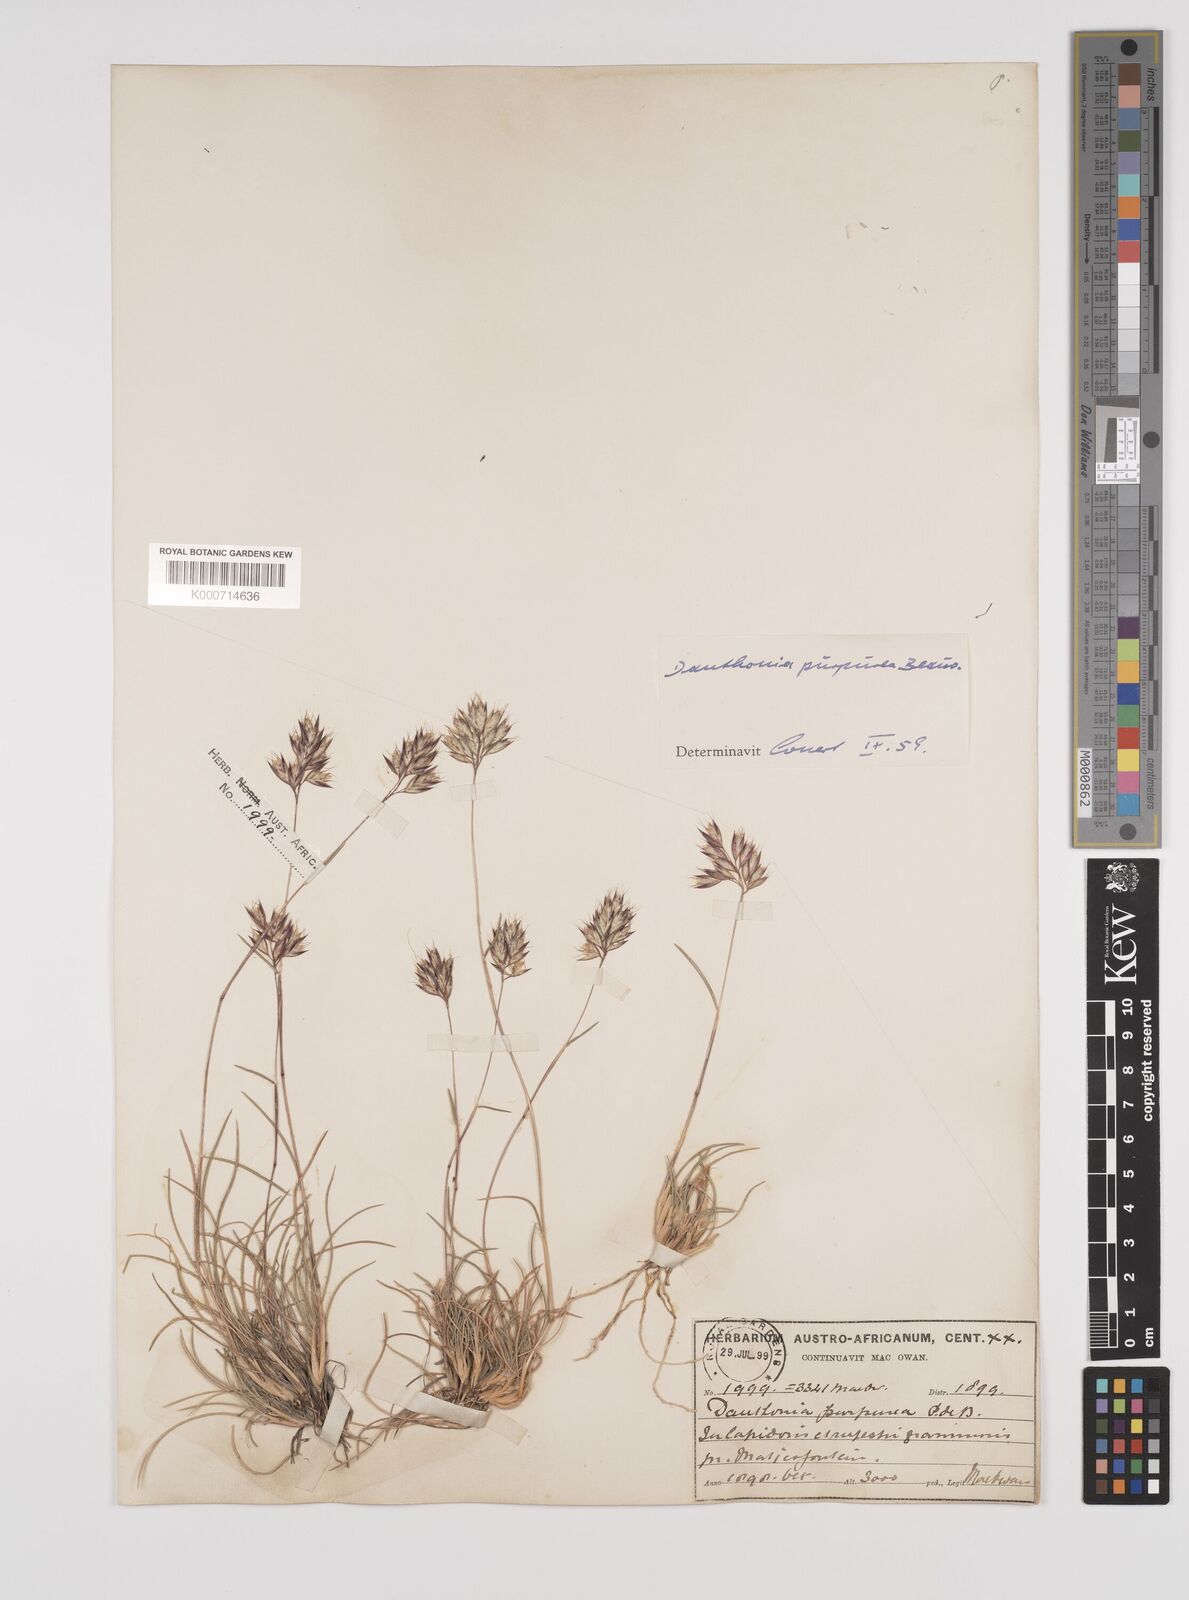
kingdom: Plantae
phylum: Tracheophyta
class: Liliopsida
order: Poales
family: Poaceae
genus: Rytidosperma
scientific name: Rytidosperma
